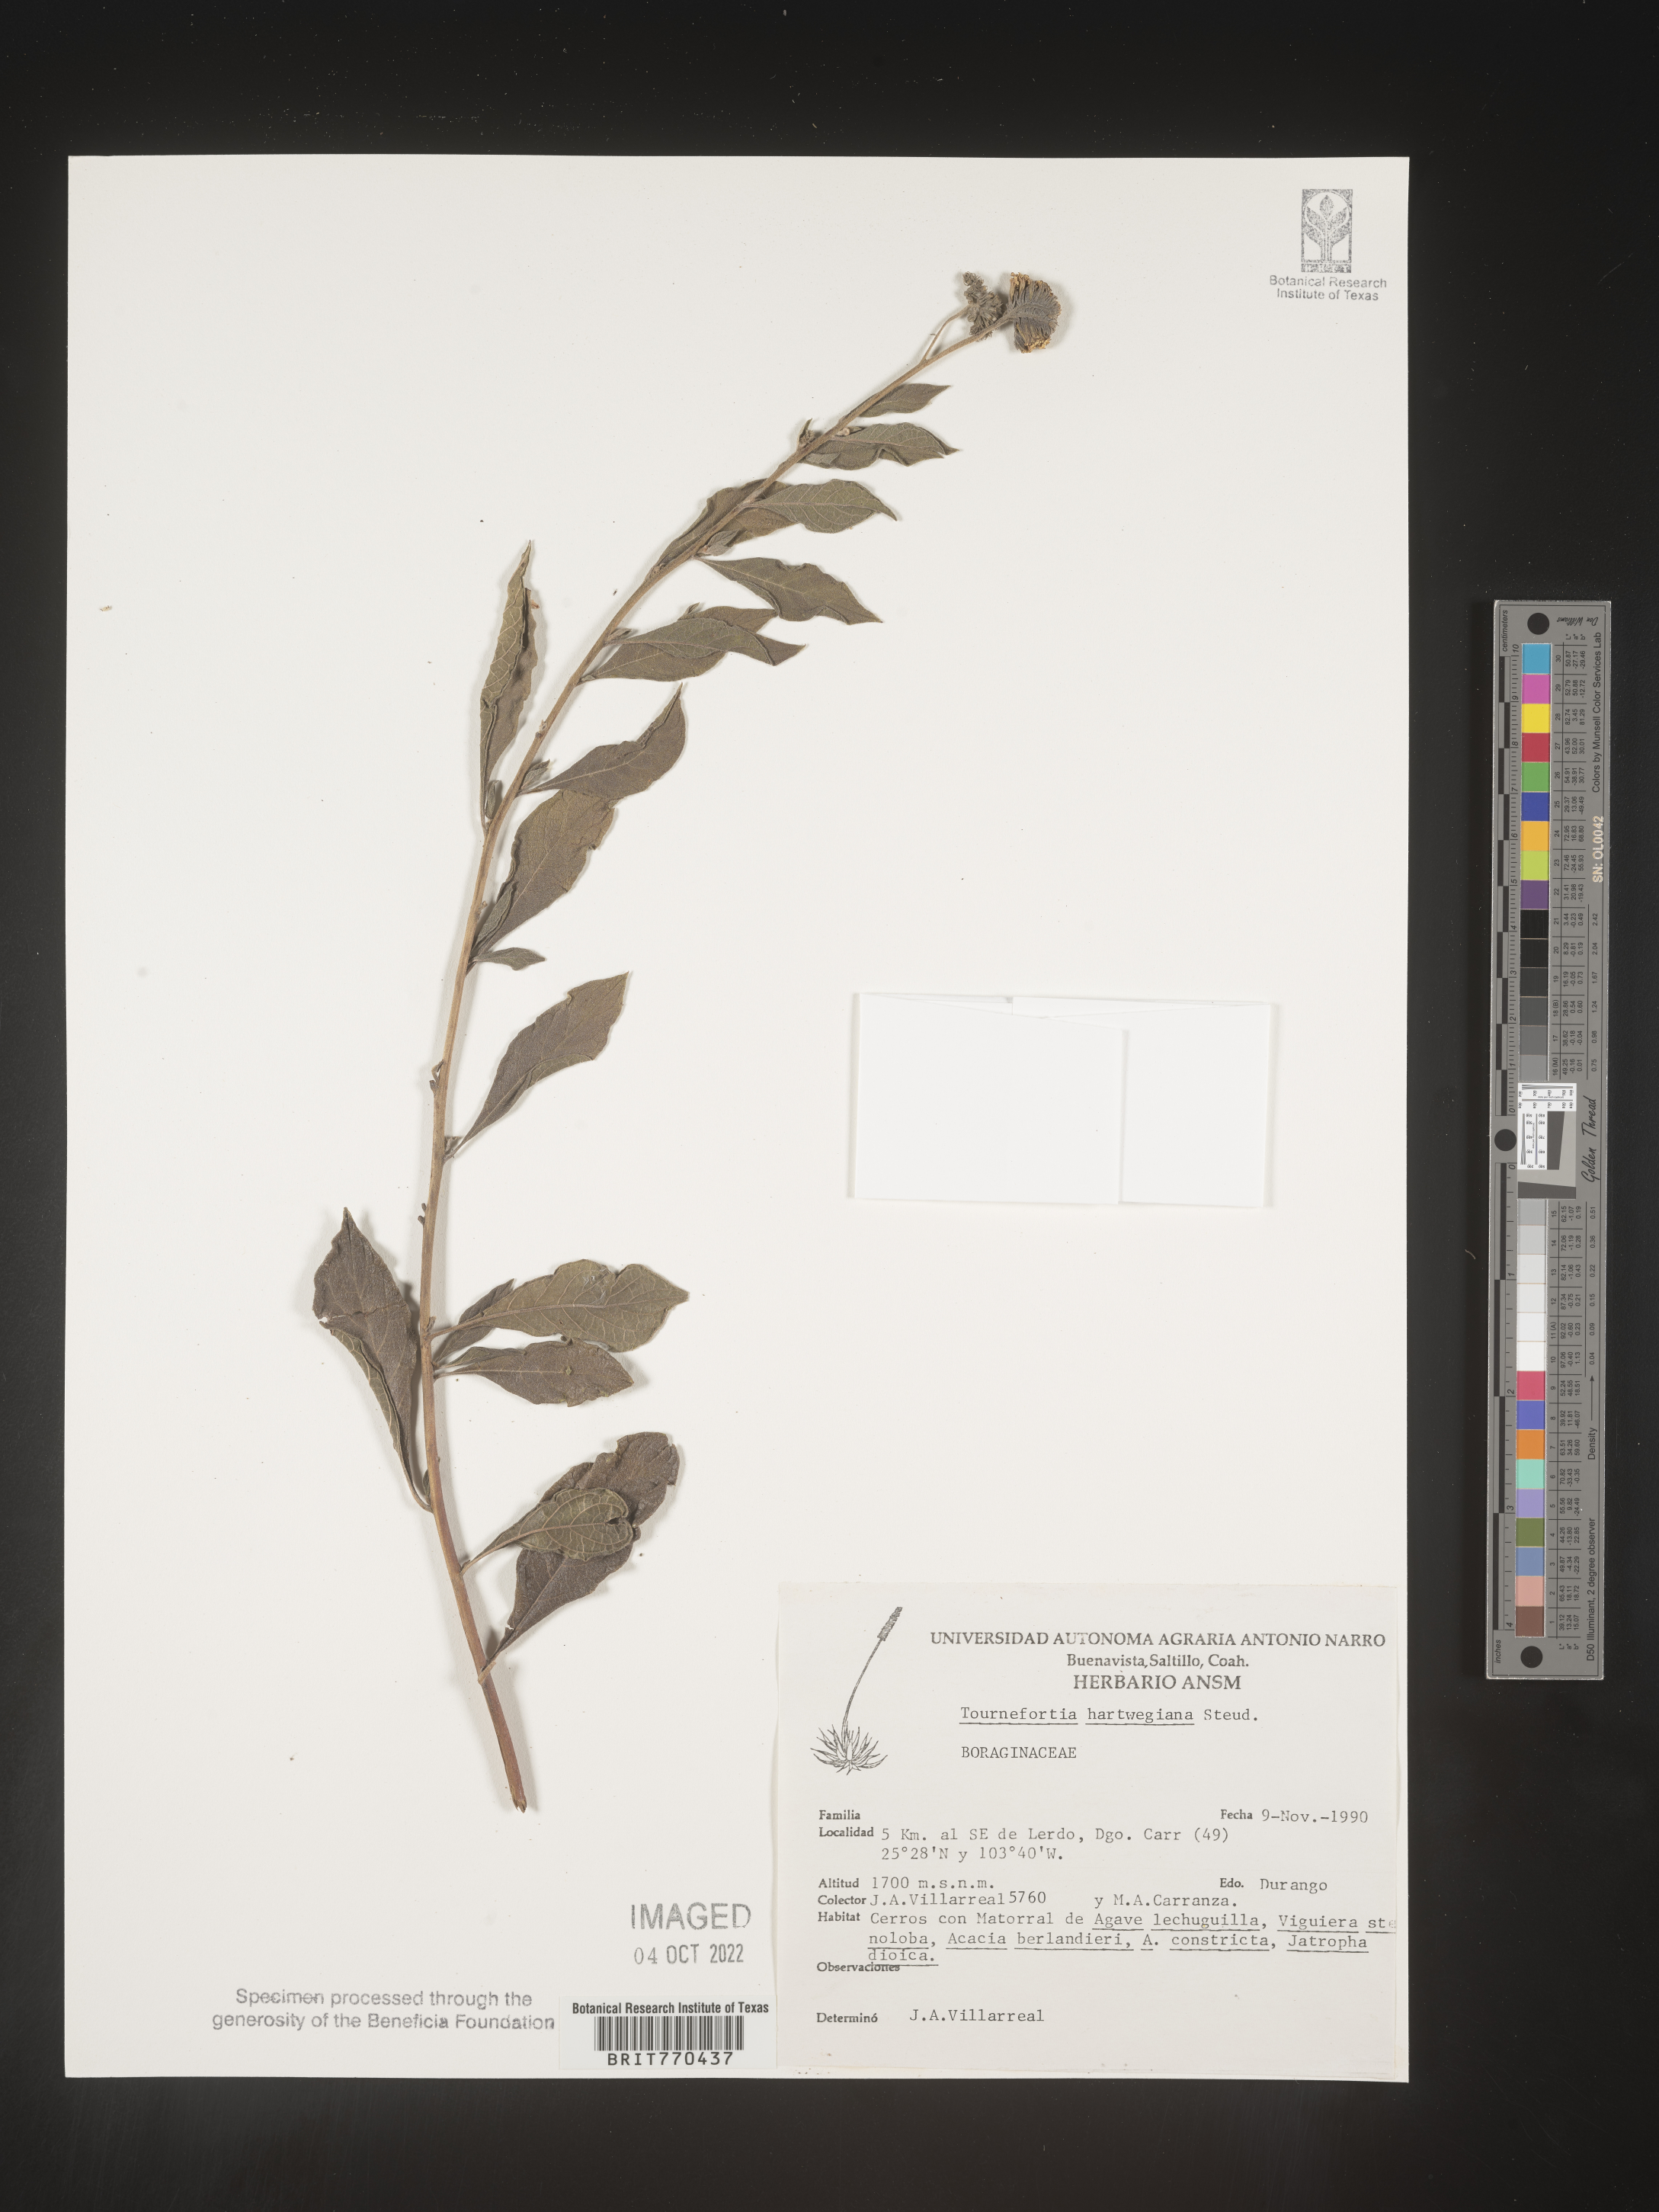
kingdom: Plantae
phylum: Tracheophyta
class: Magnoliopsida
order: Boraginales
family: Heliotropiaceae
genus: Tournefortia
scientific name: Tournefortia
